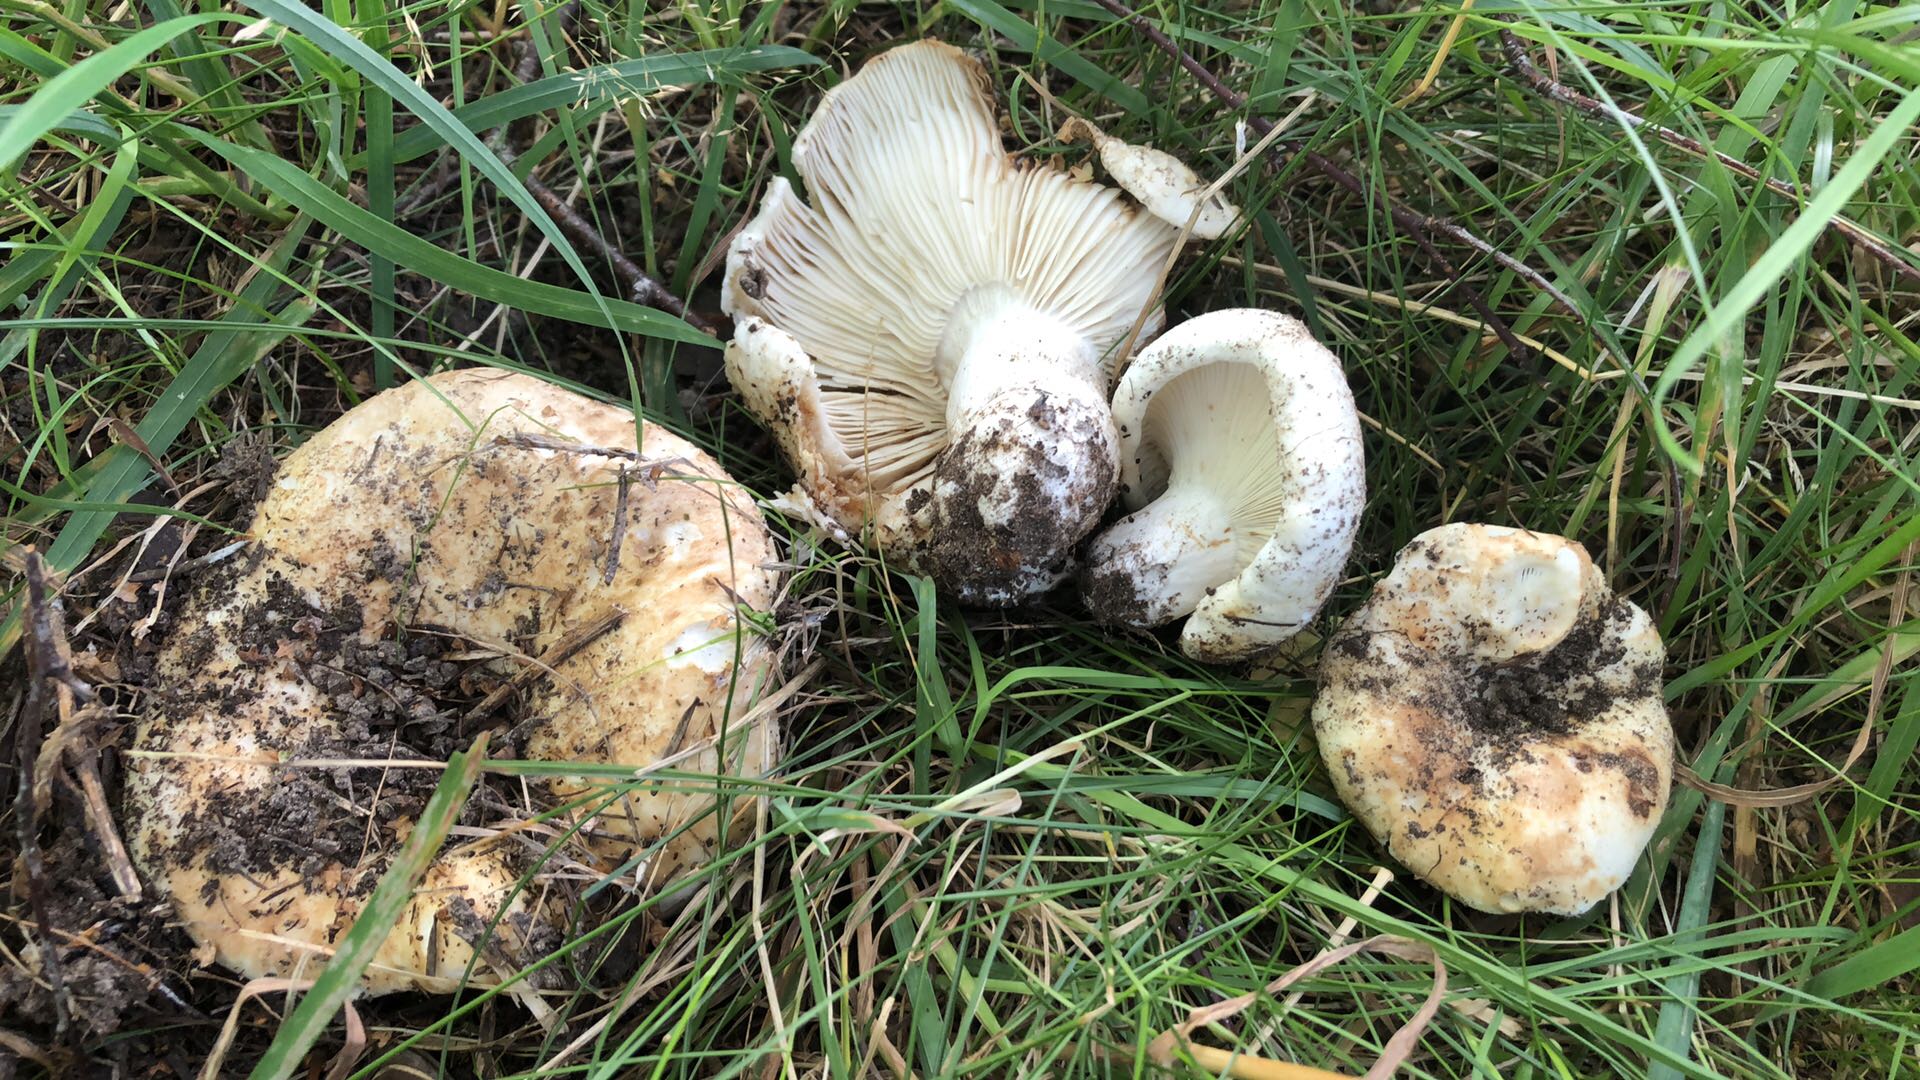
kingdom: Fungi
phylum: Basidiomycota
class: Agaricomycetes
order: Russulales
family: Russulaceae
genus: Russula
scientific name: Russula delica
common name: almindelig tragt-skørhat
